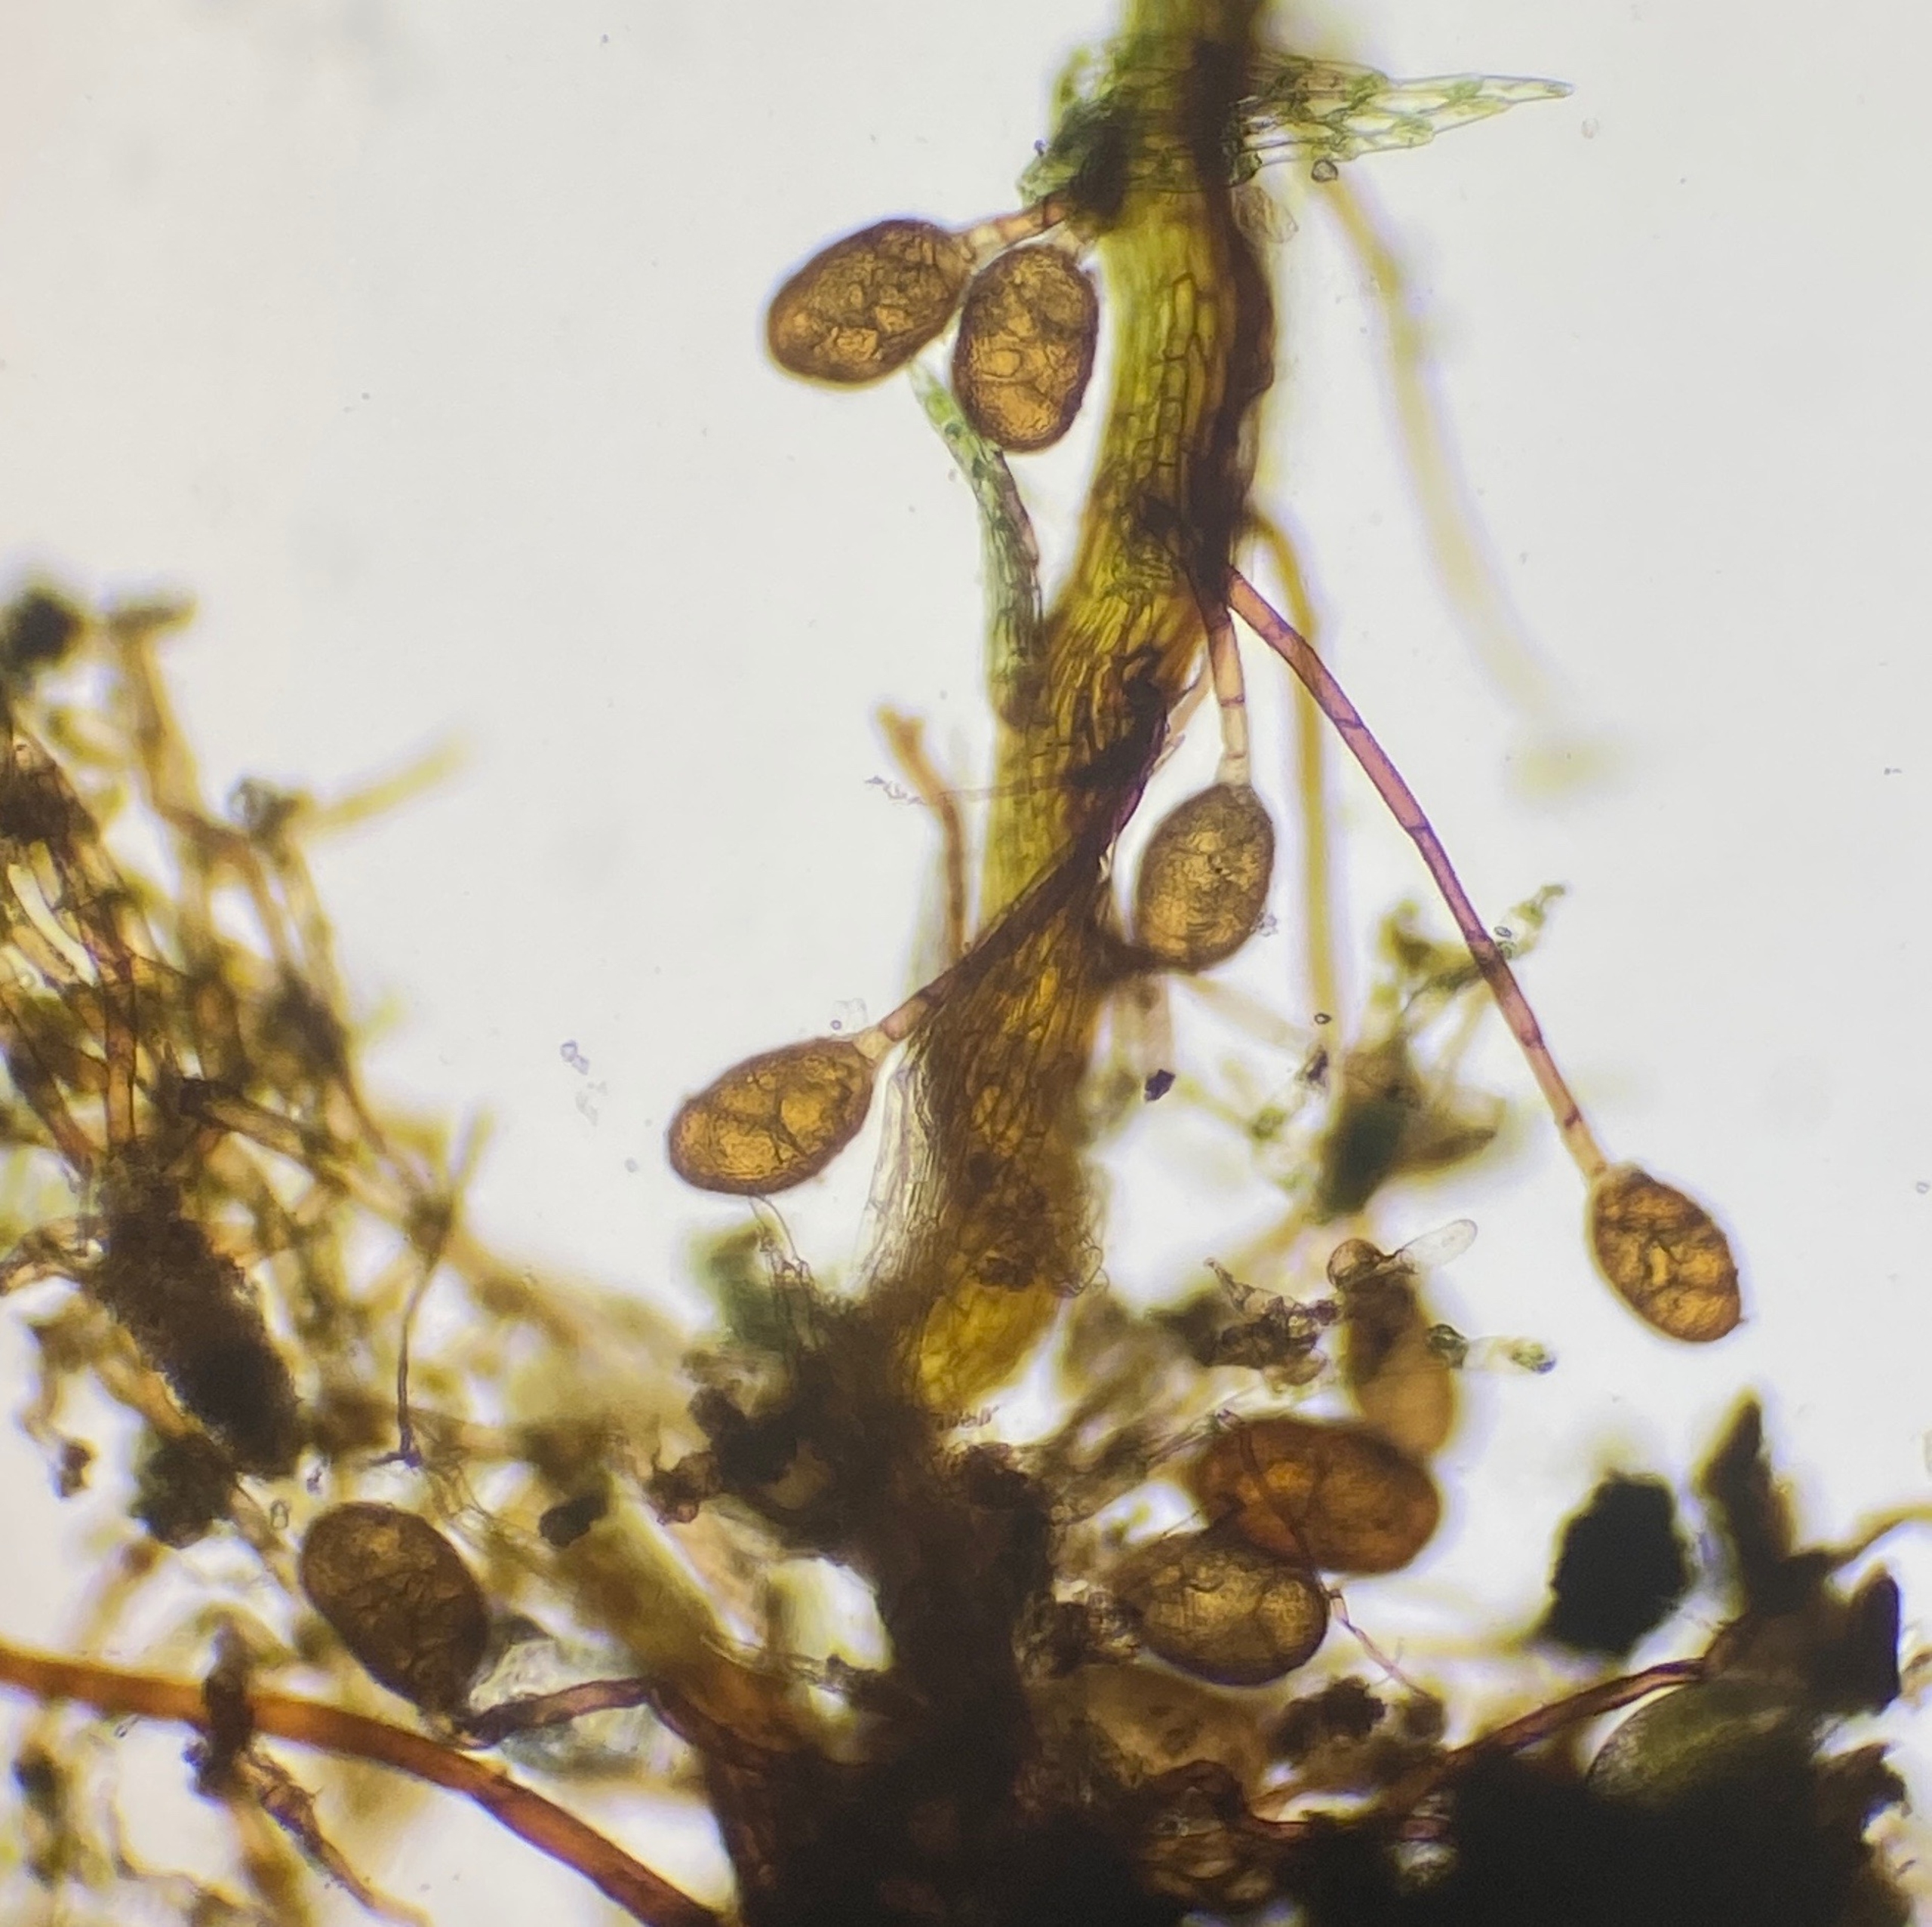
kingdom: Plantae
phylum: Bryophyta
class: Bryopsida
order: Splachnales
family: Meesiaceae
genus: Leptobryum
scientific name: Leptobryum pyriforme
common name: Almindelig pæremos
